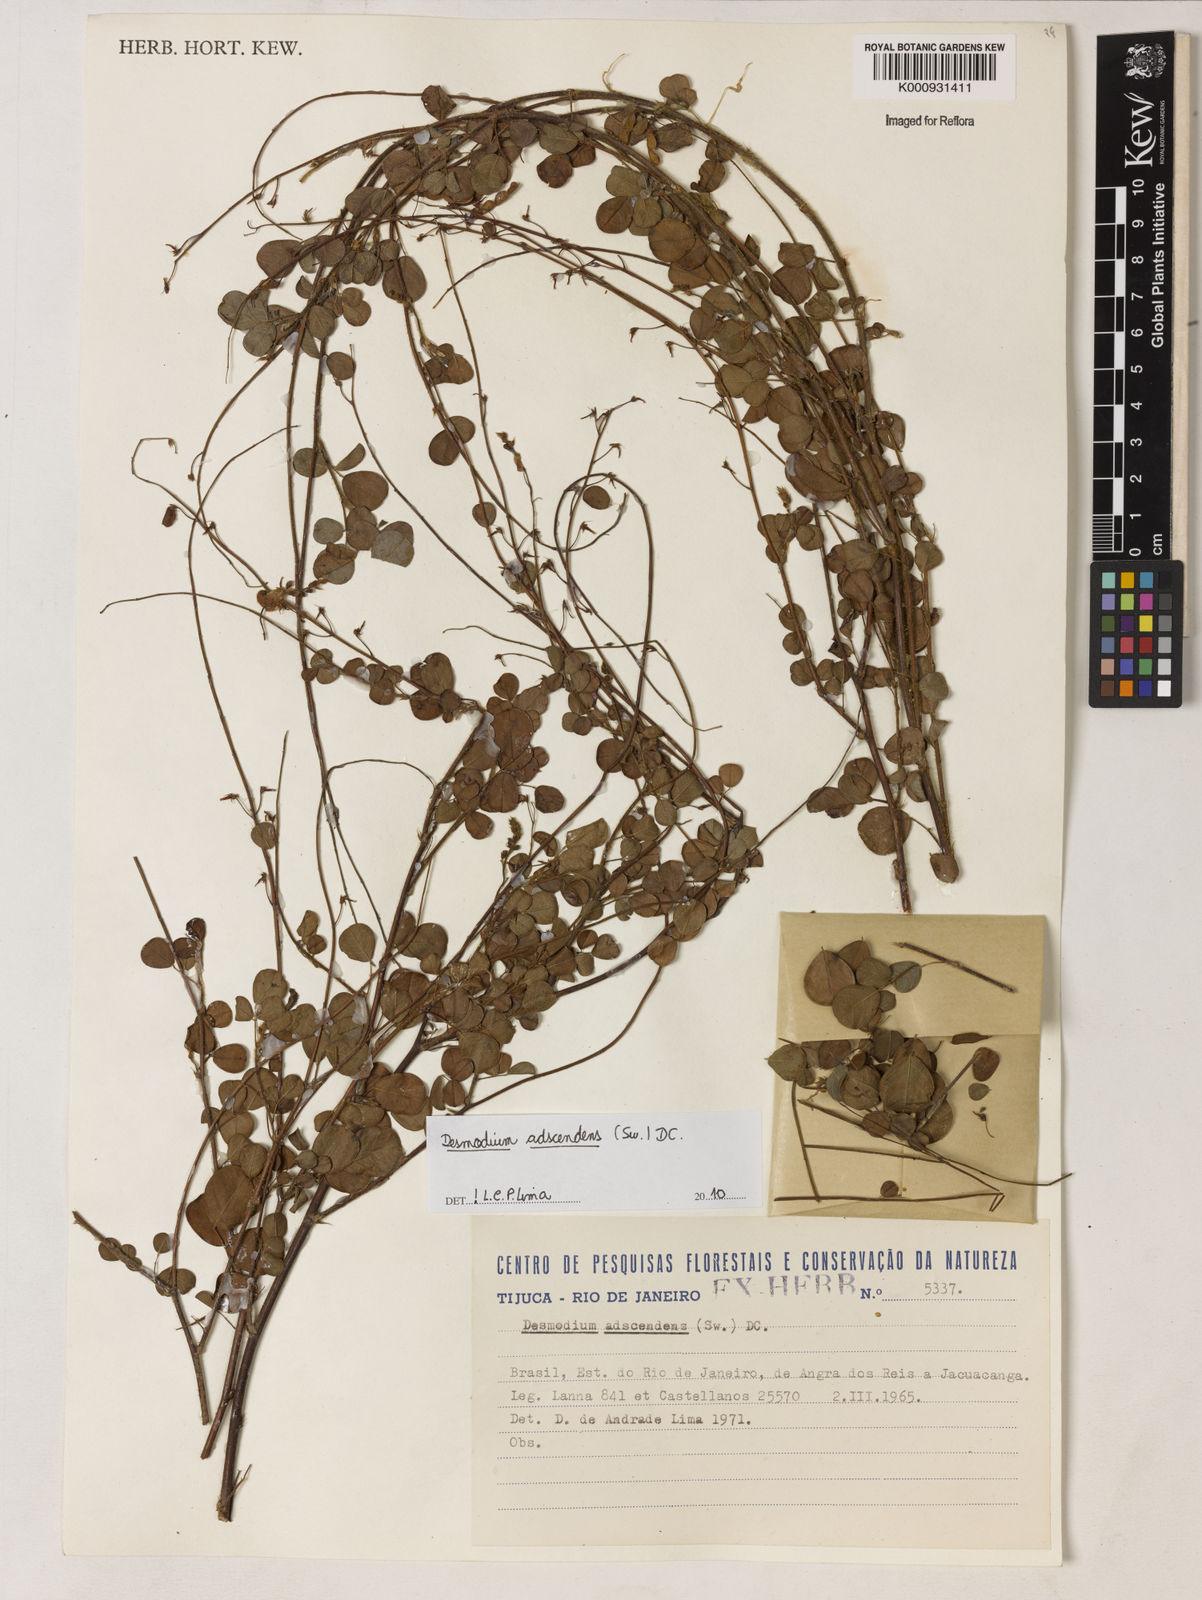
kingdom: Plantae
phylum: Tracheophyta
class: Magnoliopsida
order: Fabales
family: Fabaceae
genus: Grona
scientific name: Grona adscendens
